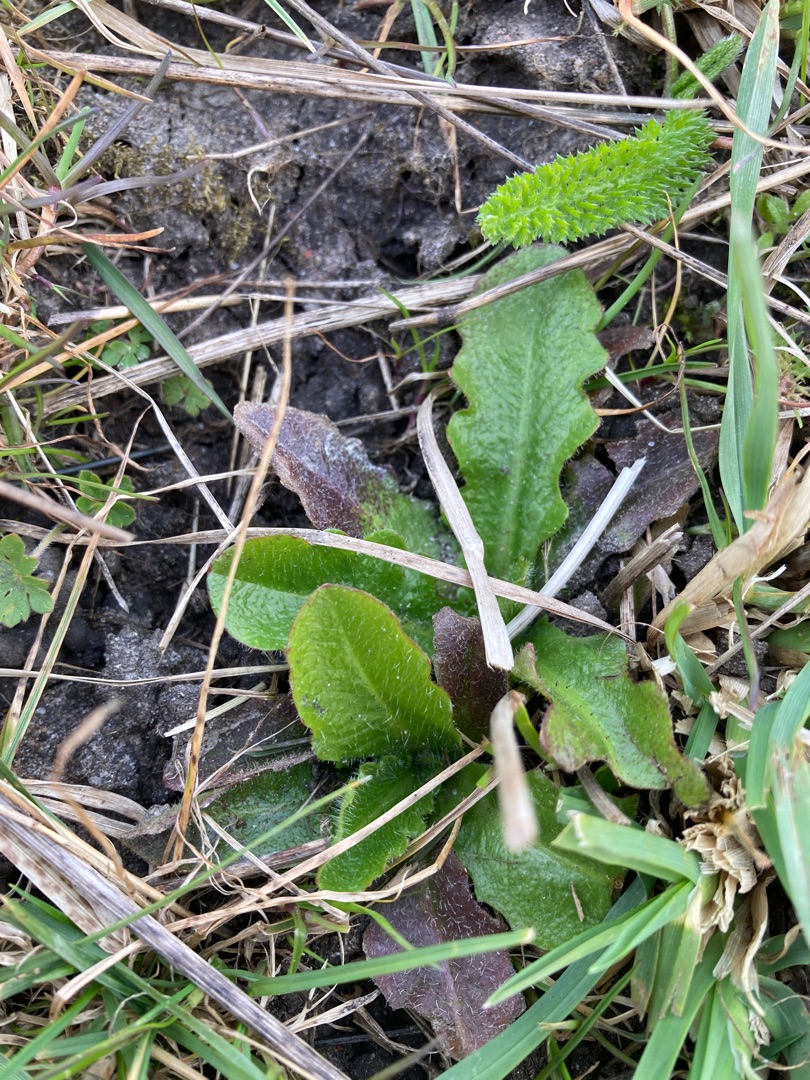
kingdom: Plantae
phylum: Tracheophyta
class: Magnoliopsida
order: Asterales
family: Asteraceae
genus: Hypochaeris
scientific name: Hypochaeris radicata
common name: Almindelig kongepen
